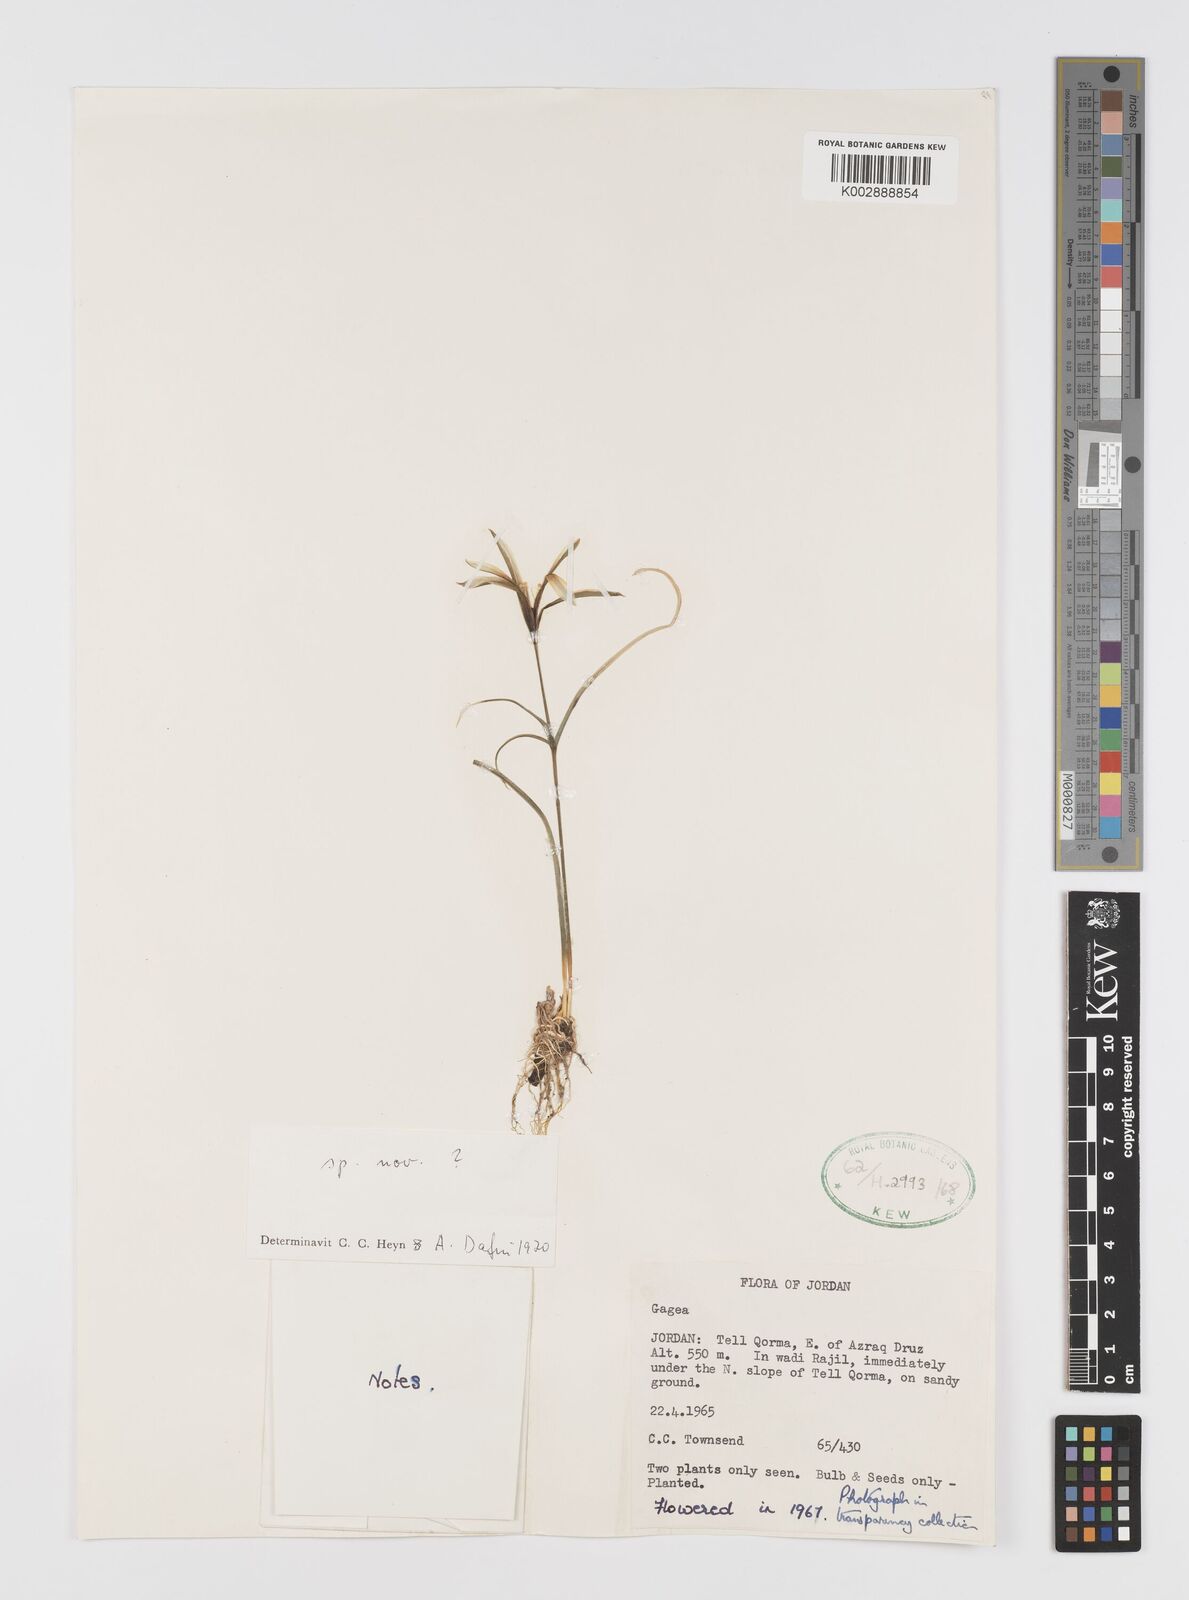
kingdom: Plantae
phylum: Tracheophyta
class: Liliopsida
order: Liliales
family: Liliaceae
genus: Gagea
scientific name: Gagea
